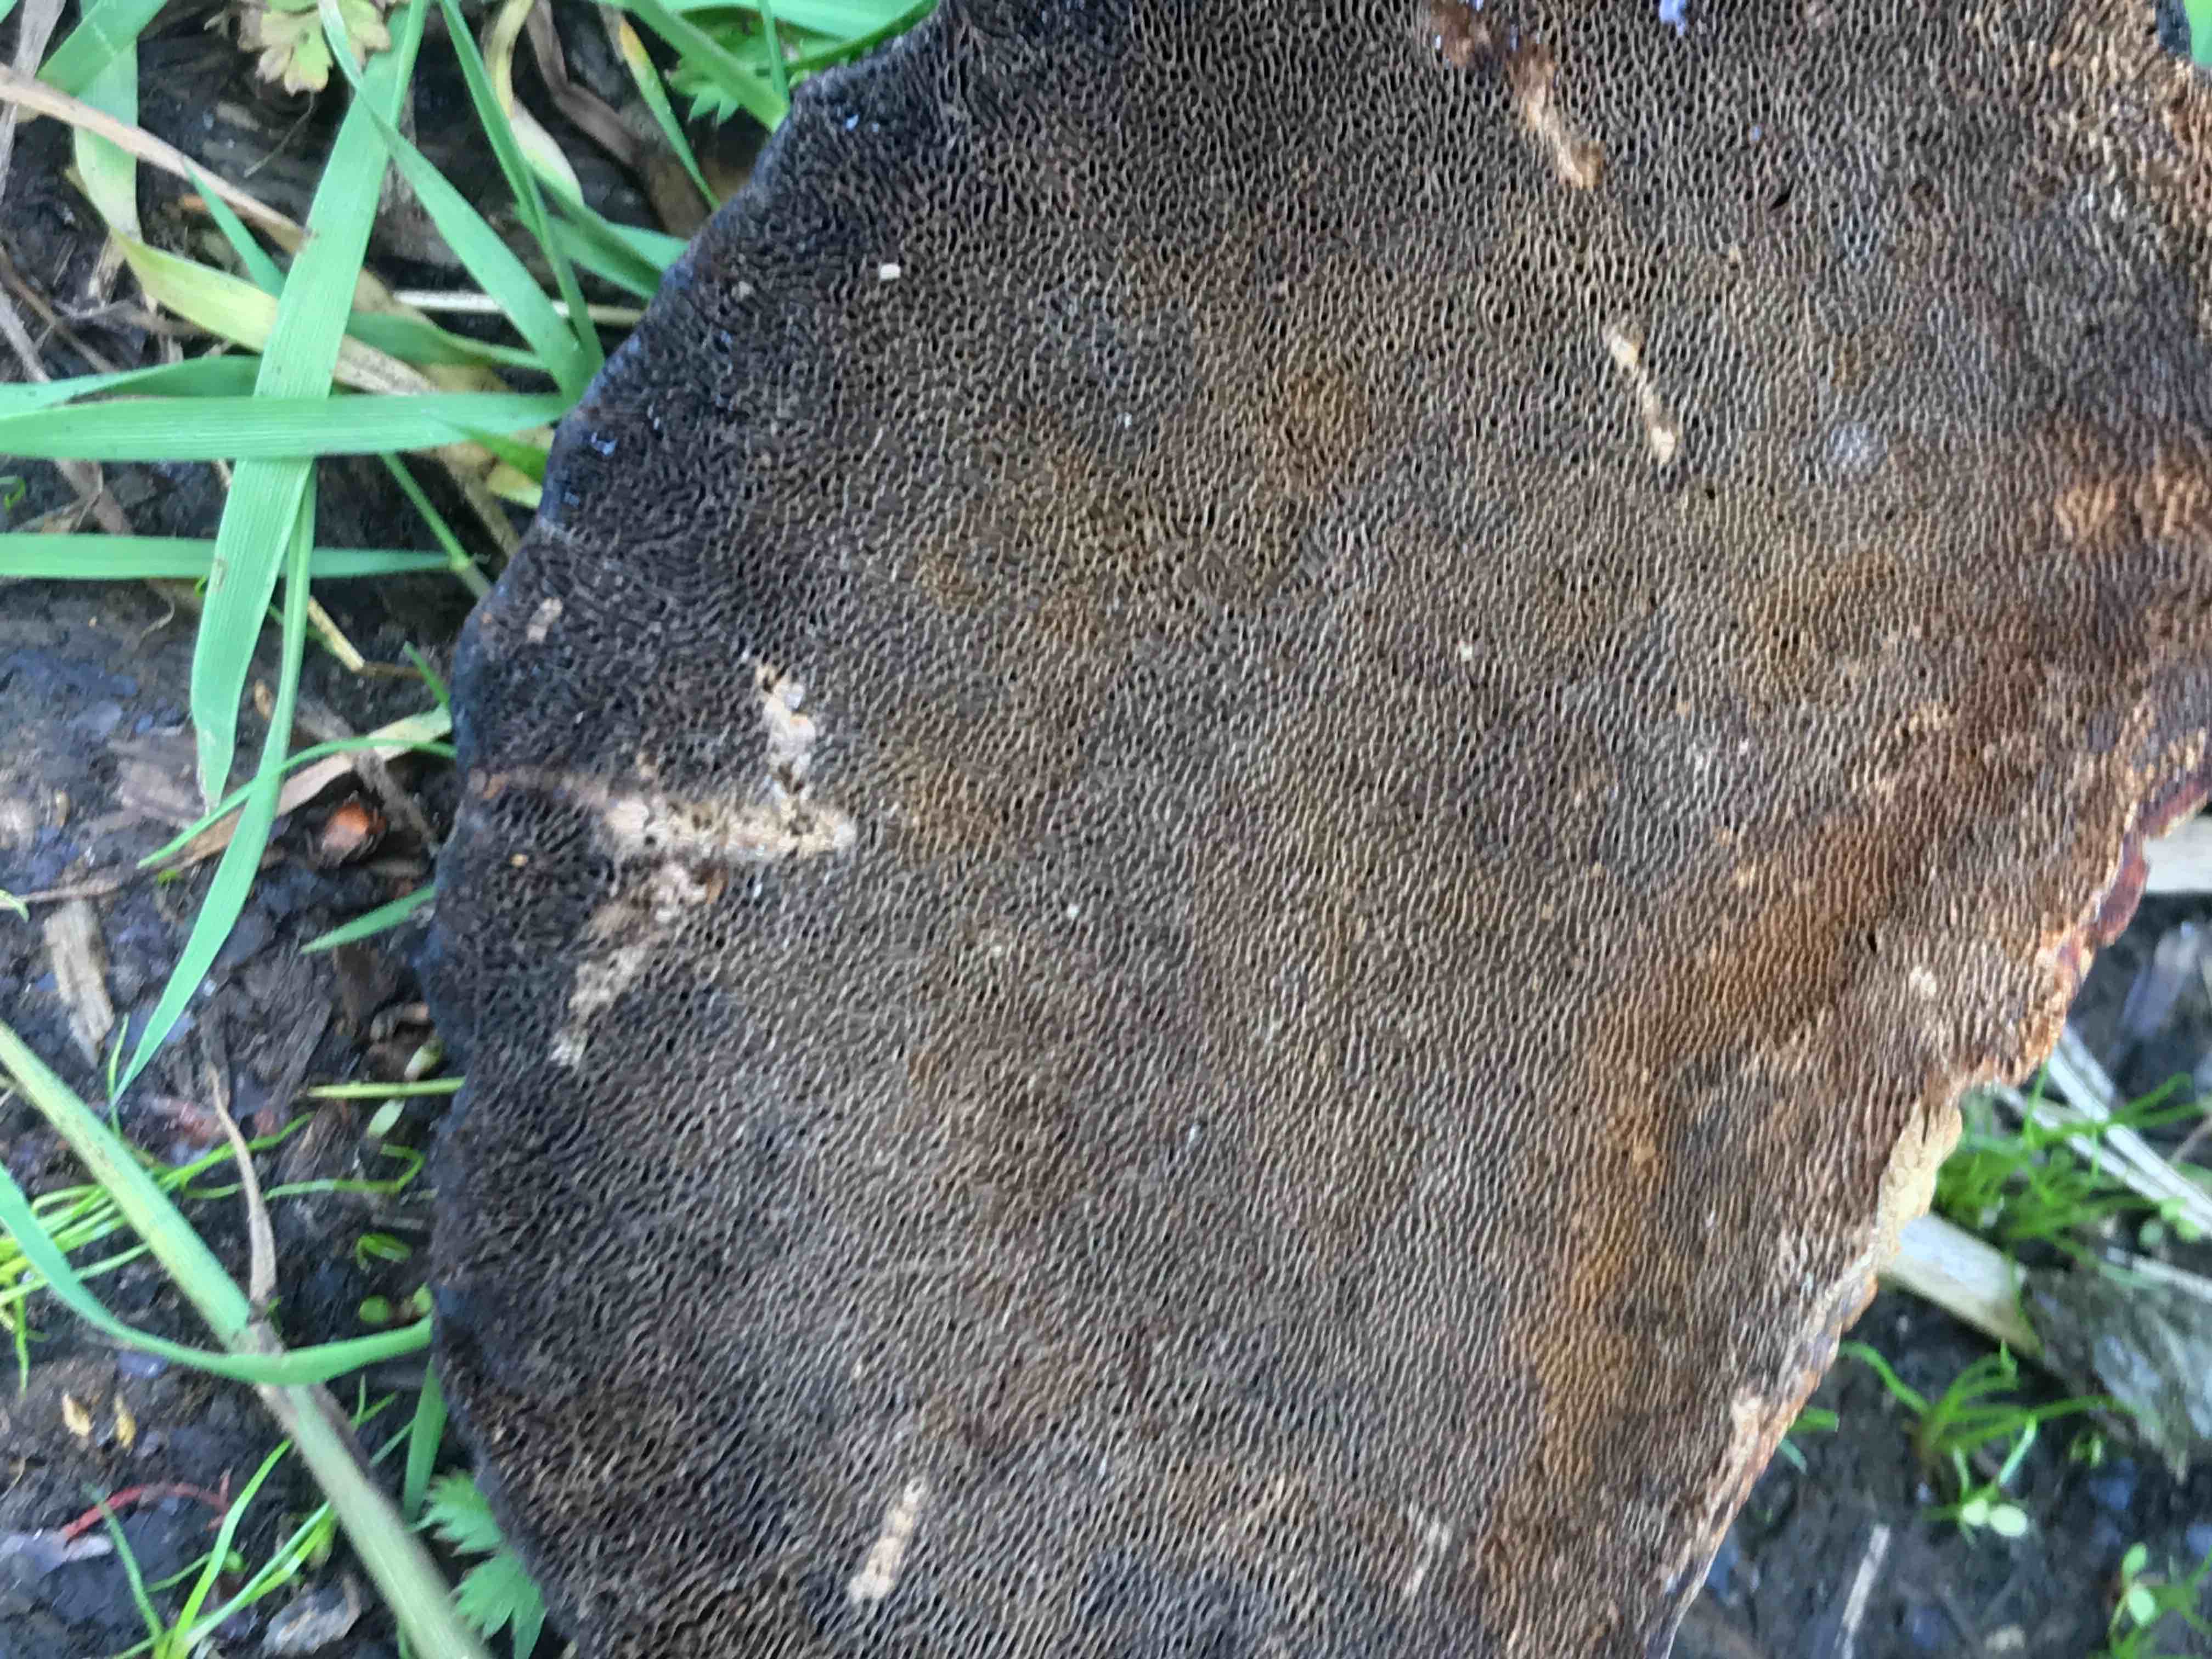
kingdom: Fungi
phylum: Basidiomycota
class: Agaricomycetes
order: Polyporales
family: Polyporaceae
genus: Daedaleopsis
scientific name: Daedaleopsis confragosa
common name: rødmende læderporesvamp
